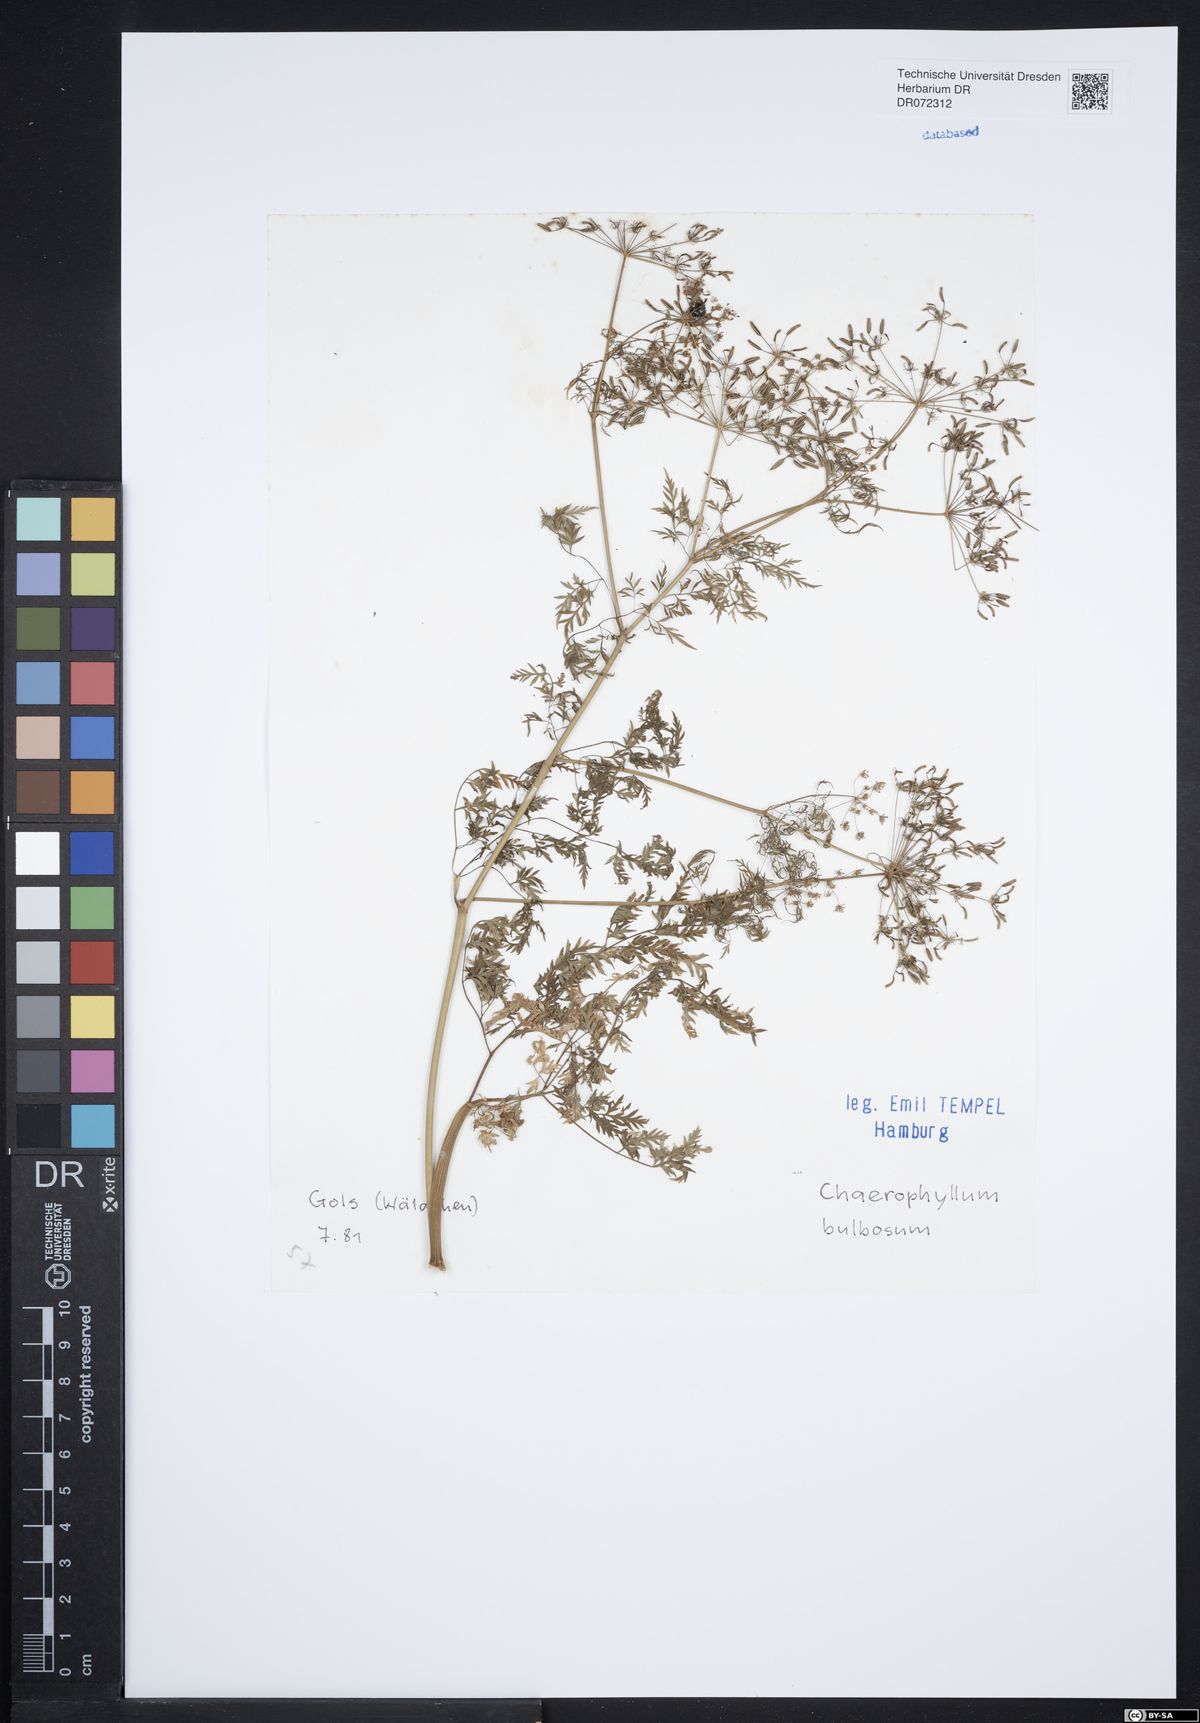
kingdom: Plantae
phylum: Tracheophyta
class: Magnoliopsida
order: Apiales
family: Apiaceae
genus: Chaerophyllum
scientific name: Chaerophyllum bulbosum
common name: Bulbous chervil
